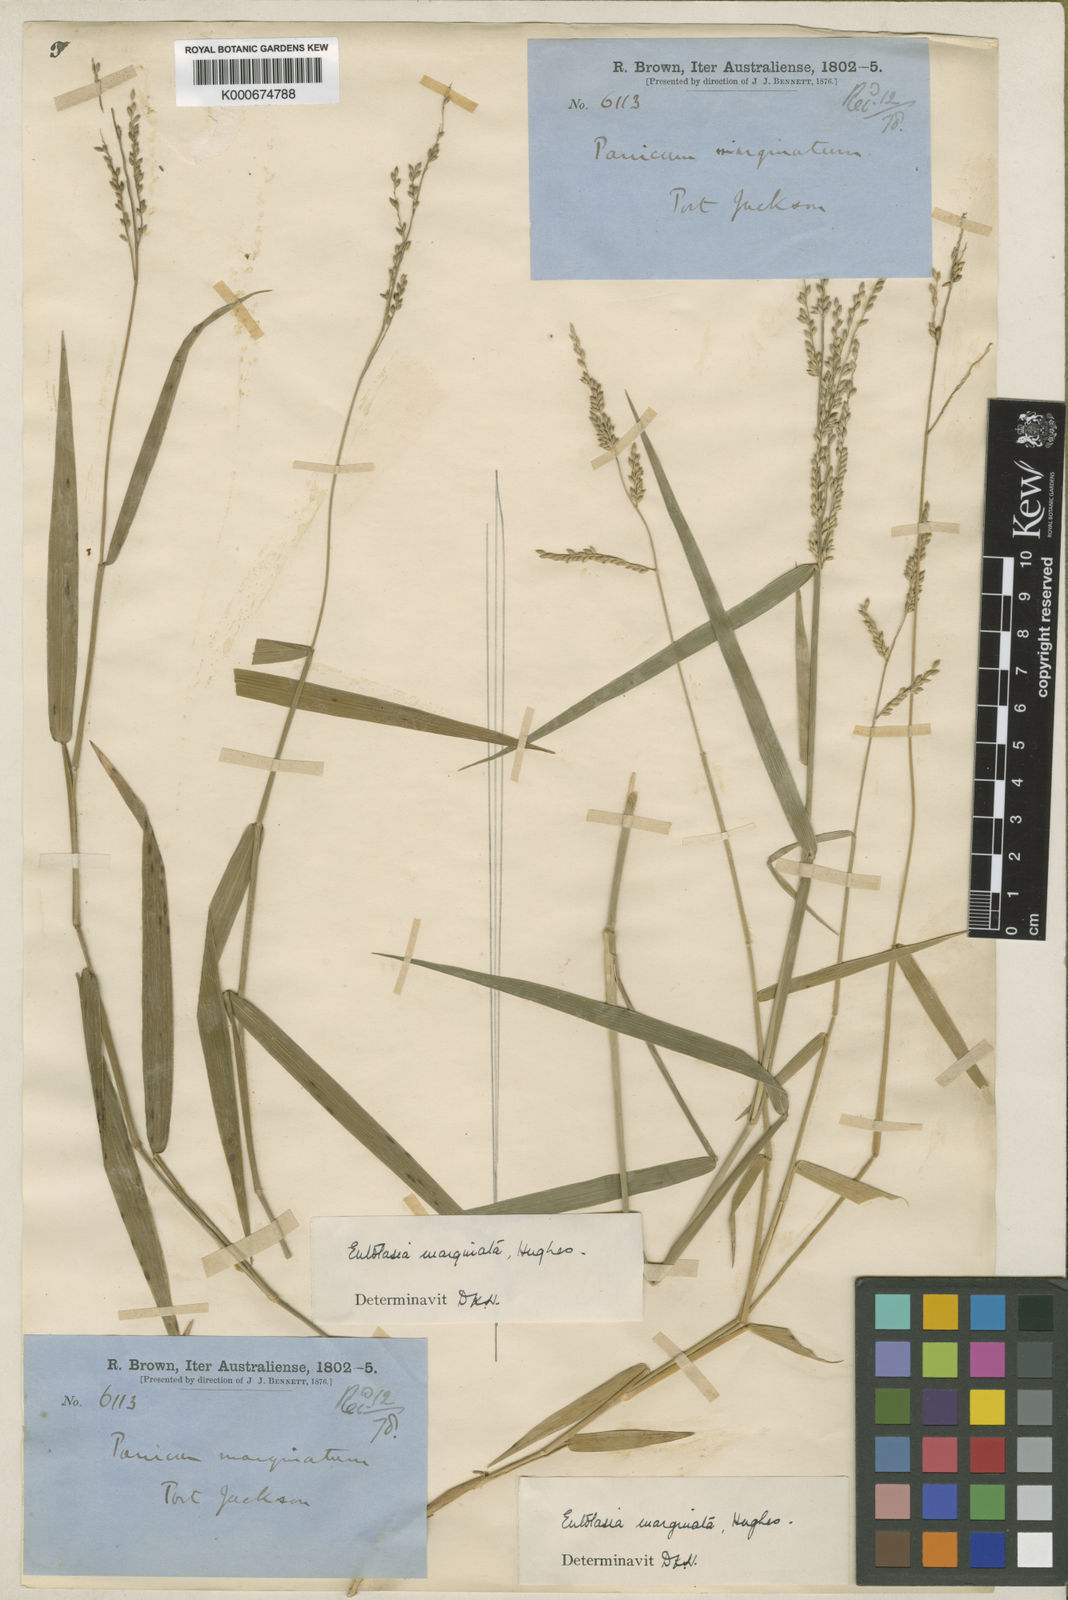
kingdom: Plantae
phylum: Tracheophyta
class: Liliopsida
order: Poales
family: Poaceae
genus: Entolasia
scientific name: Entolasia marginata
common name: Australian panicgrass
